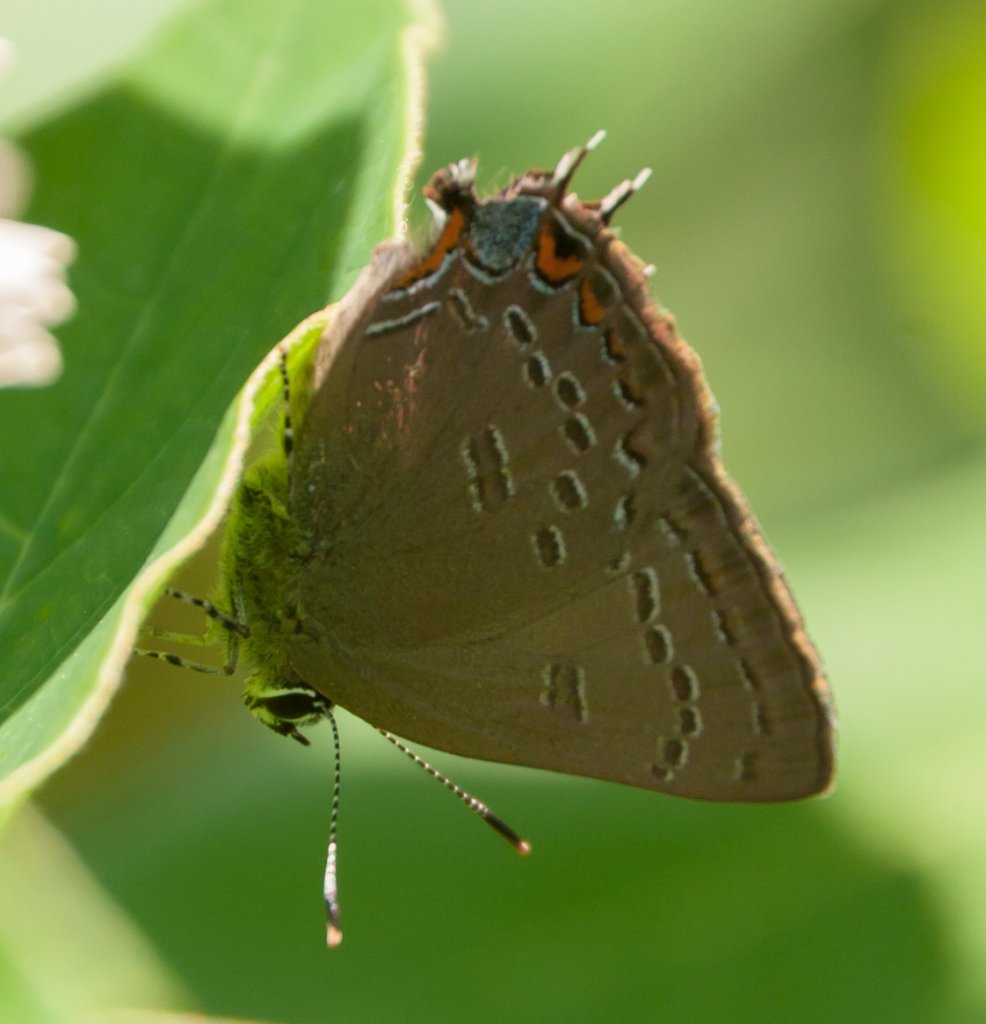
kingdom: Animalia
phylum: Arthropoda
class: Insecta
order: Lepidoptera
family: Lycaenidae
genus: Satyrium
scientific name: Satyrium edwardsii
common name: Edwards' Hairstreak
